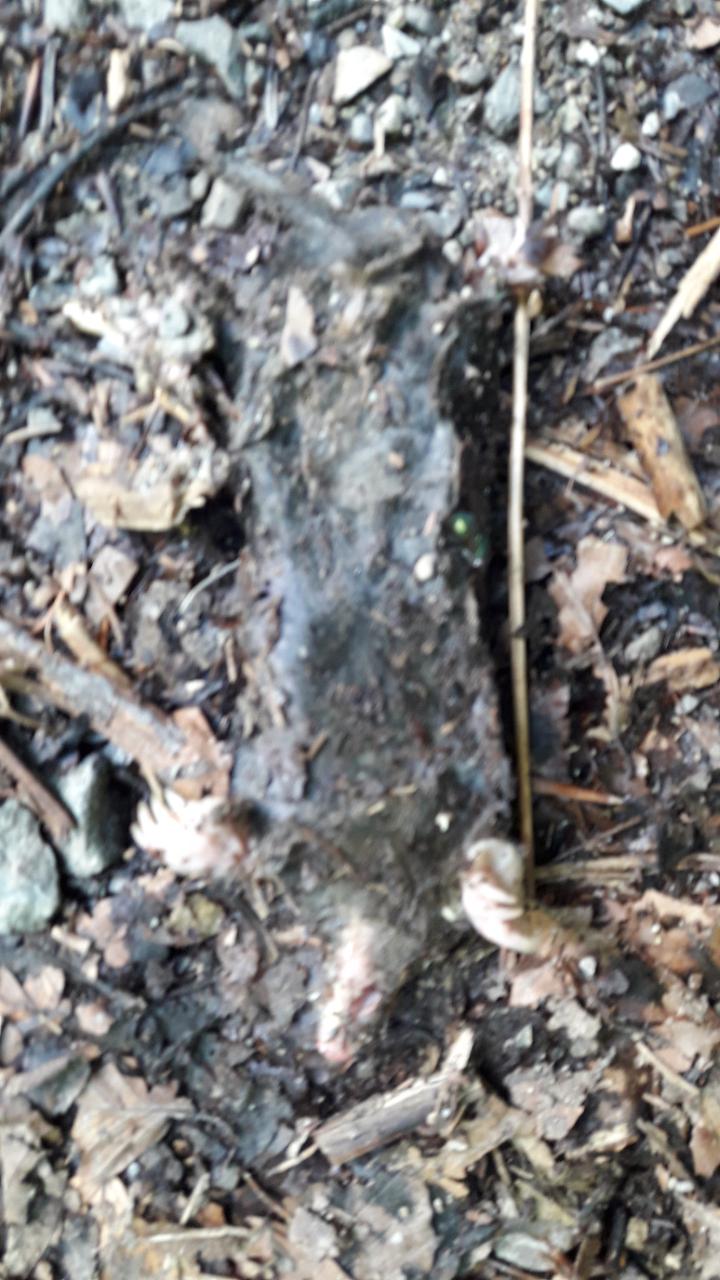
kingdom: Animalia
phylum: Chordata
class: Mammalia
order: Soricomorpha
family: Talpidae
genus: Talpa
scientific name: Talpa europaea
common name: European mole
